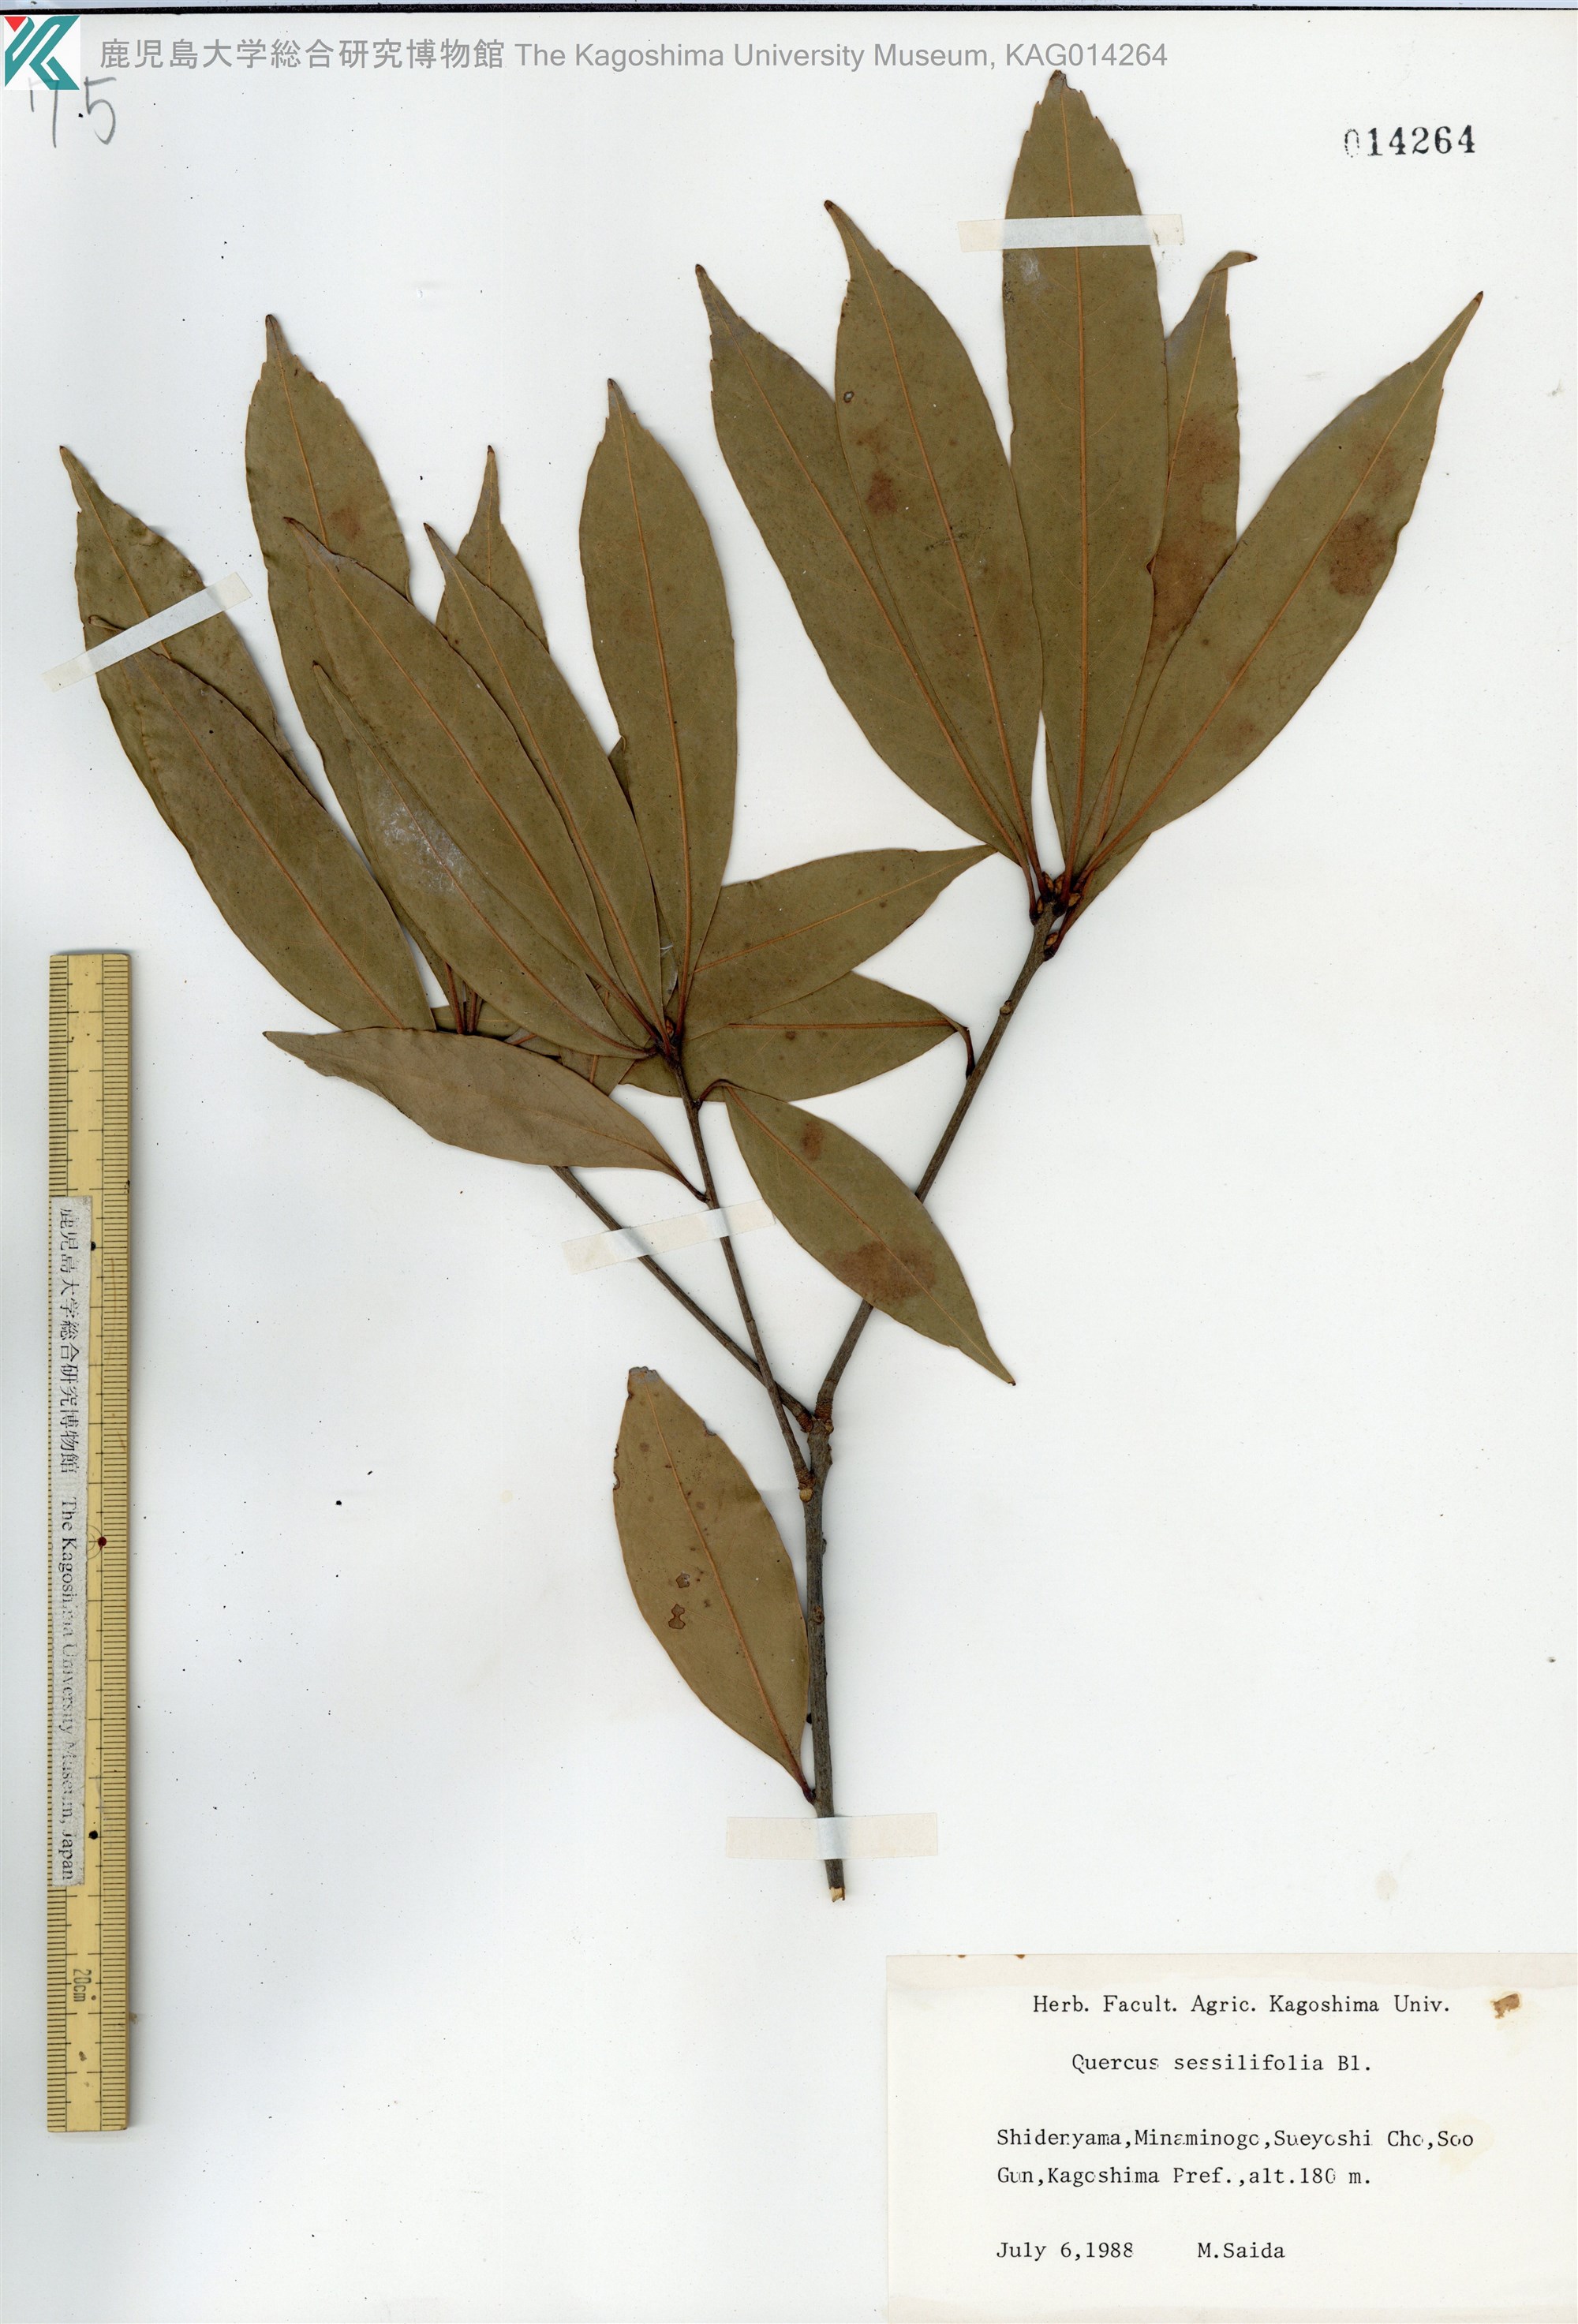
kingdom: Plantae
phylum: Tracheophyta
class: Magnoliopsida
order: Fagales
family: Fagaceae
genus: Quercus
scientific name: Quercus sessilifolia
